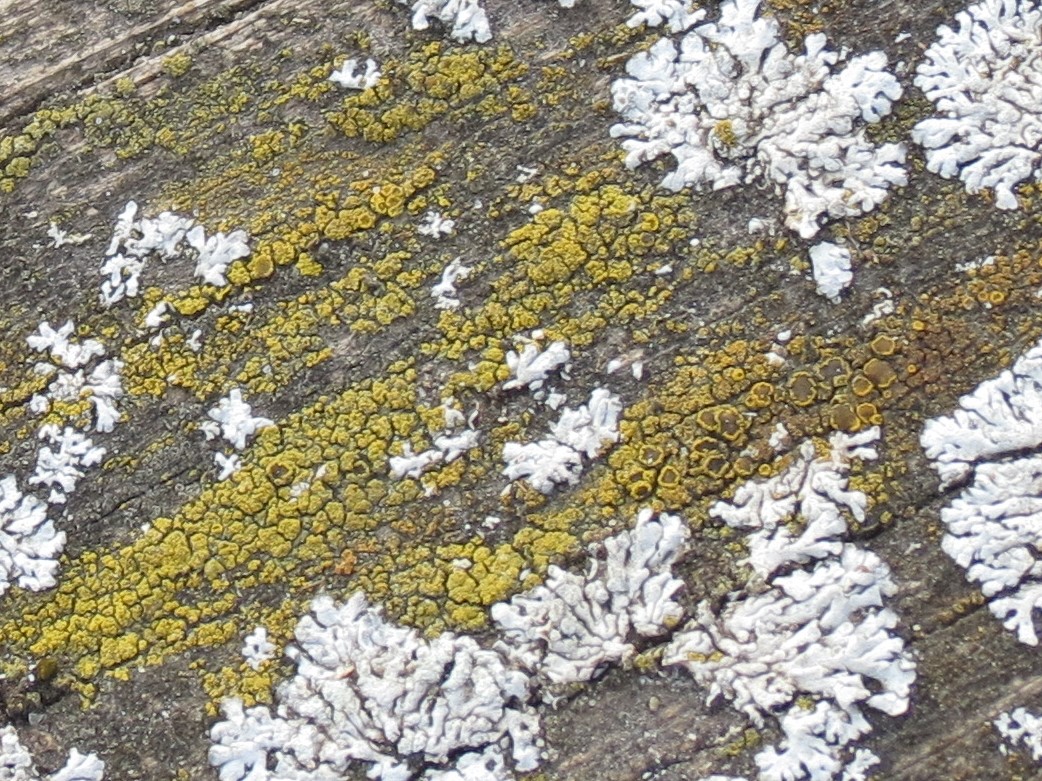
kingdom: Fungi
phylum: Ascomycota
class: Candelariomycetes
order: Candelariales
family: Candelariaceae
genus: Candelariella
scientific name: Candelariella vitellina
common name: almindelig æggeblommelav
